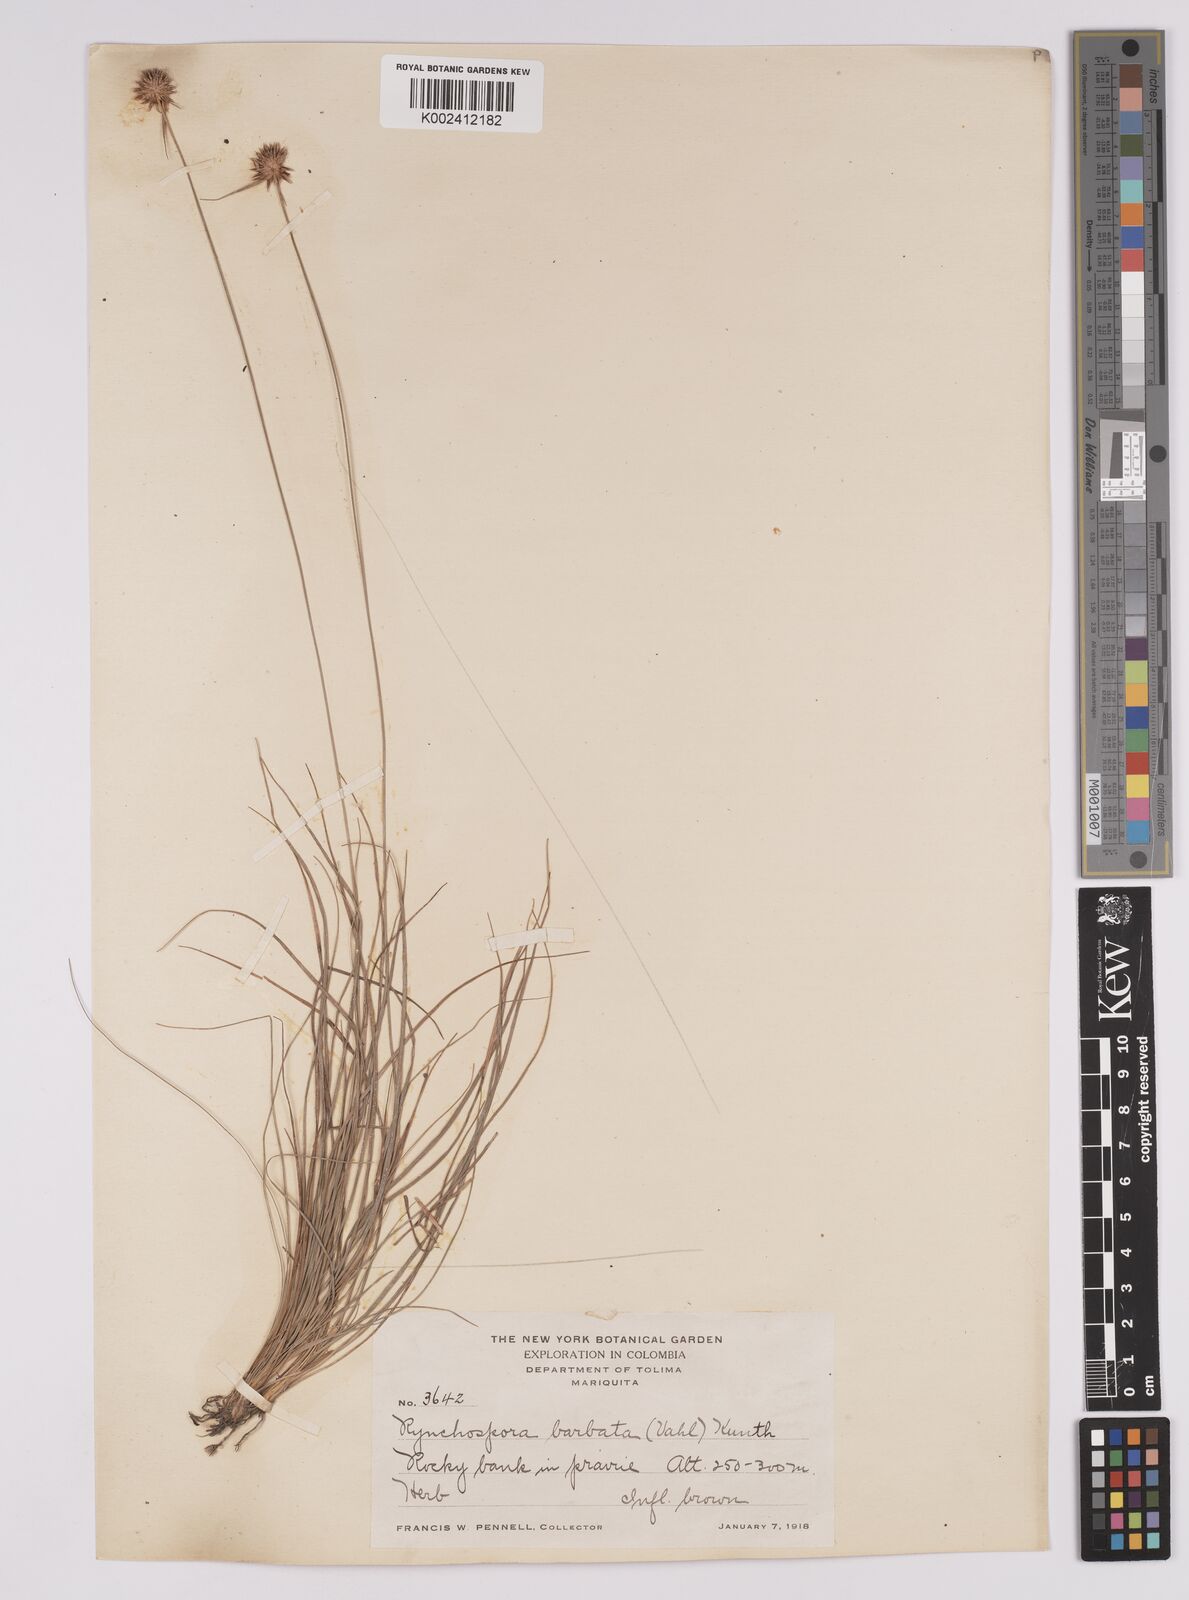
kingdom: Plantae
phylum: Tracheophyta
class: Liliopsida
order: Poales
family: Cyperaceae
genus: Rhynchospora
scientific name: Rhynchospora barbata
